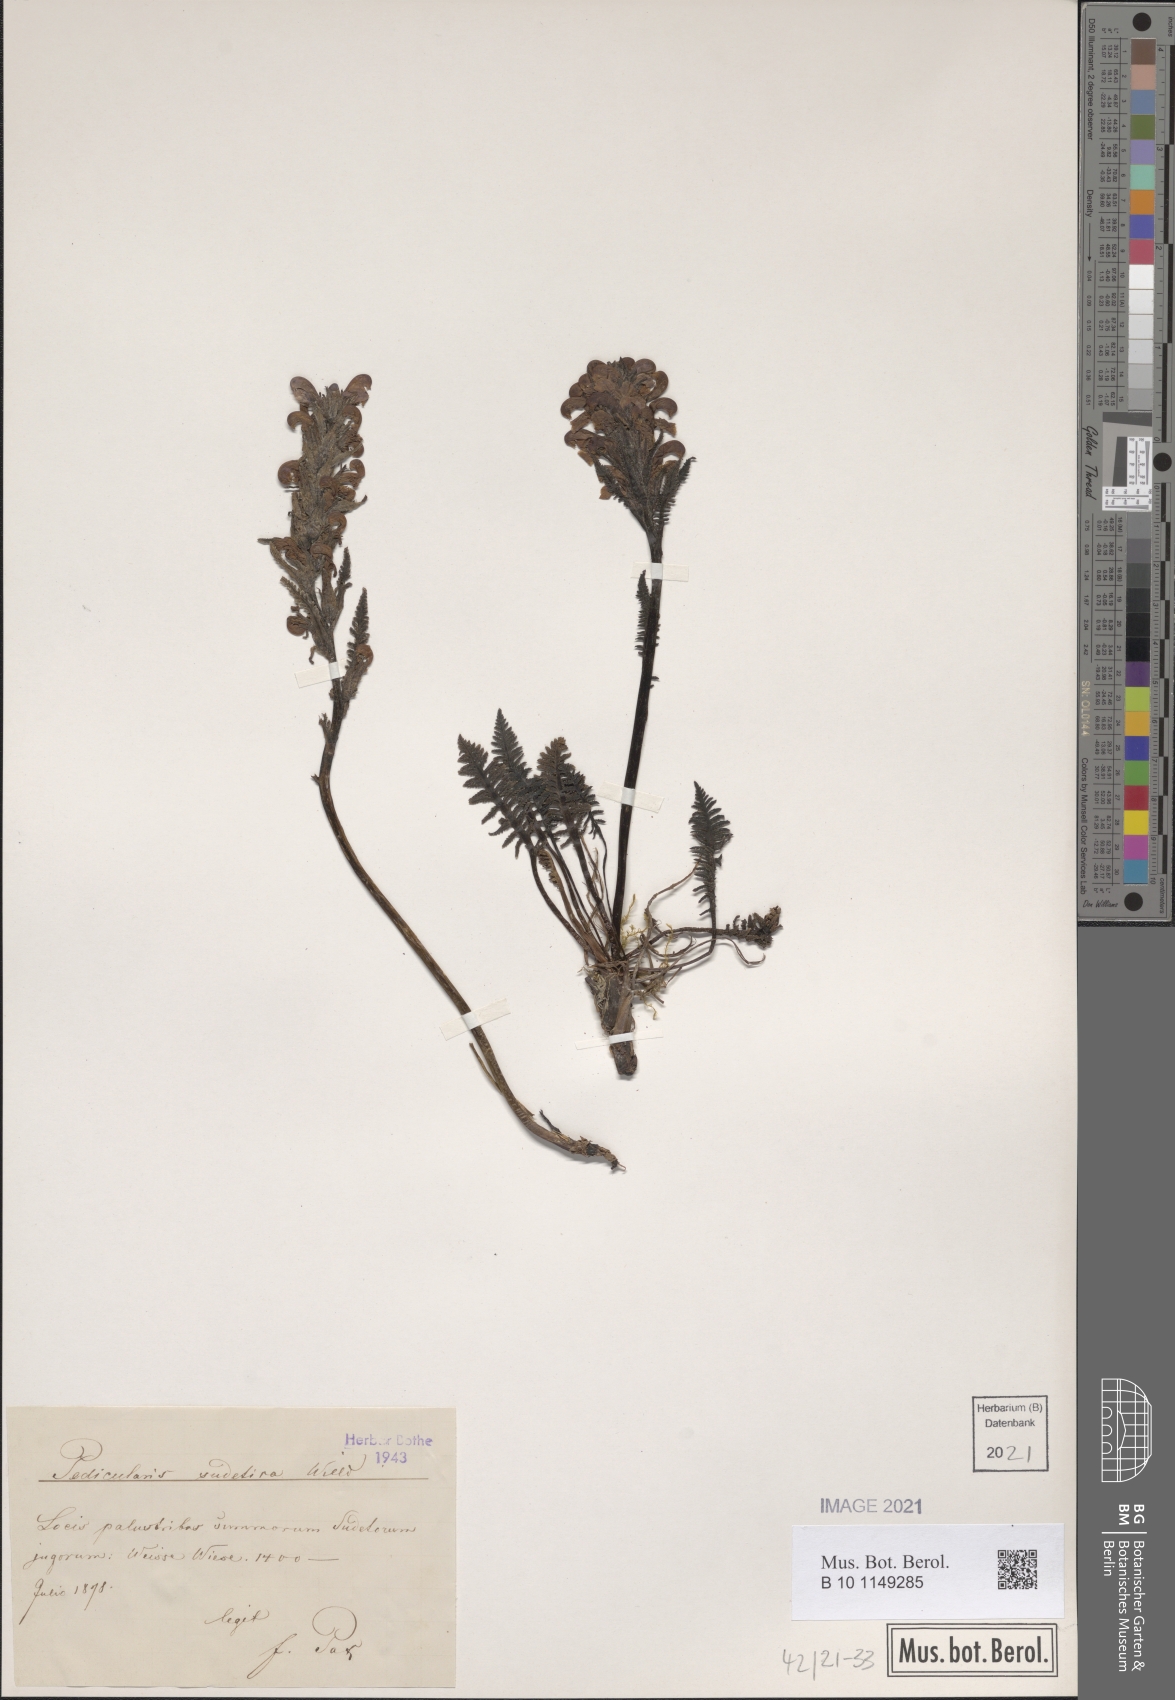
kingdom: Plantae
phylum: Tracheophyta
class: Magnoliopsida
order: Lamiales
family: Orobanchaceae
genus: Pedicularis
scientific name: Pedicularis sudetica
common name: Sudeten lousewort
